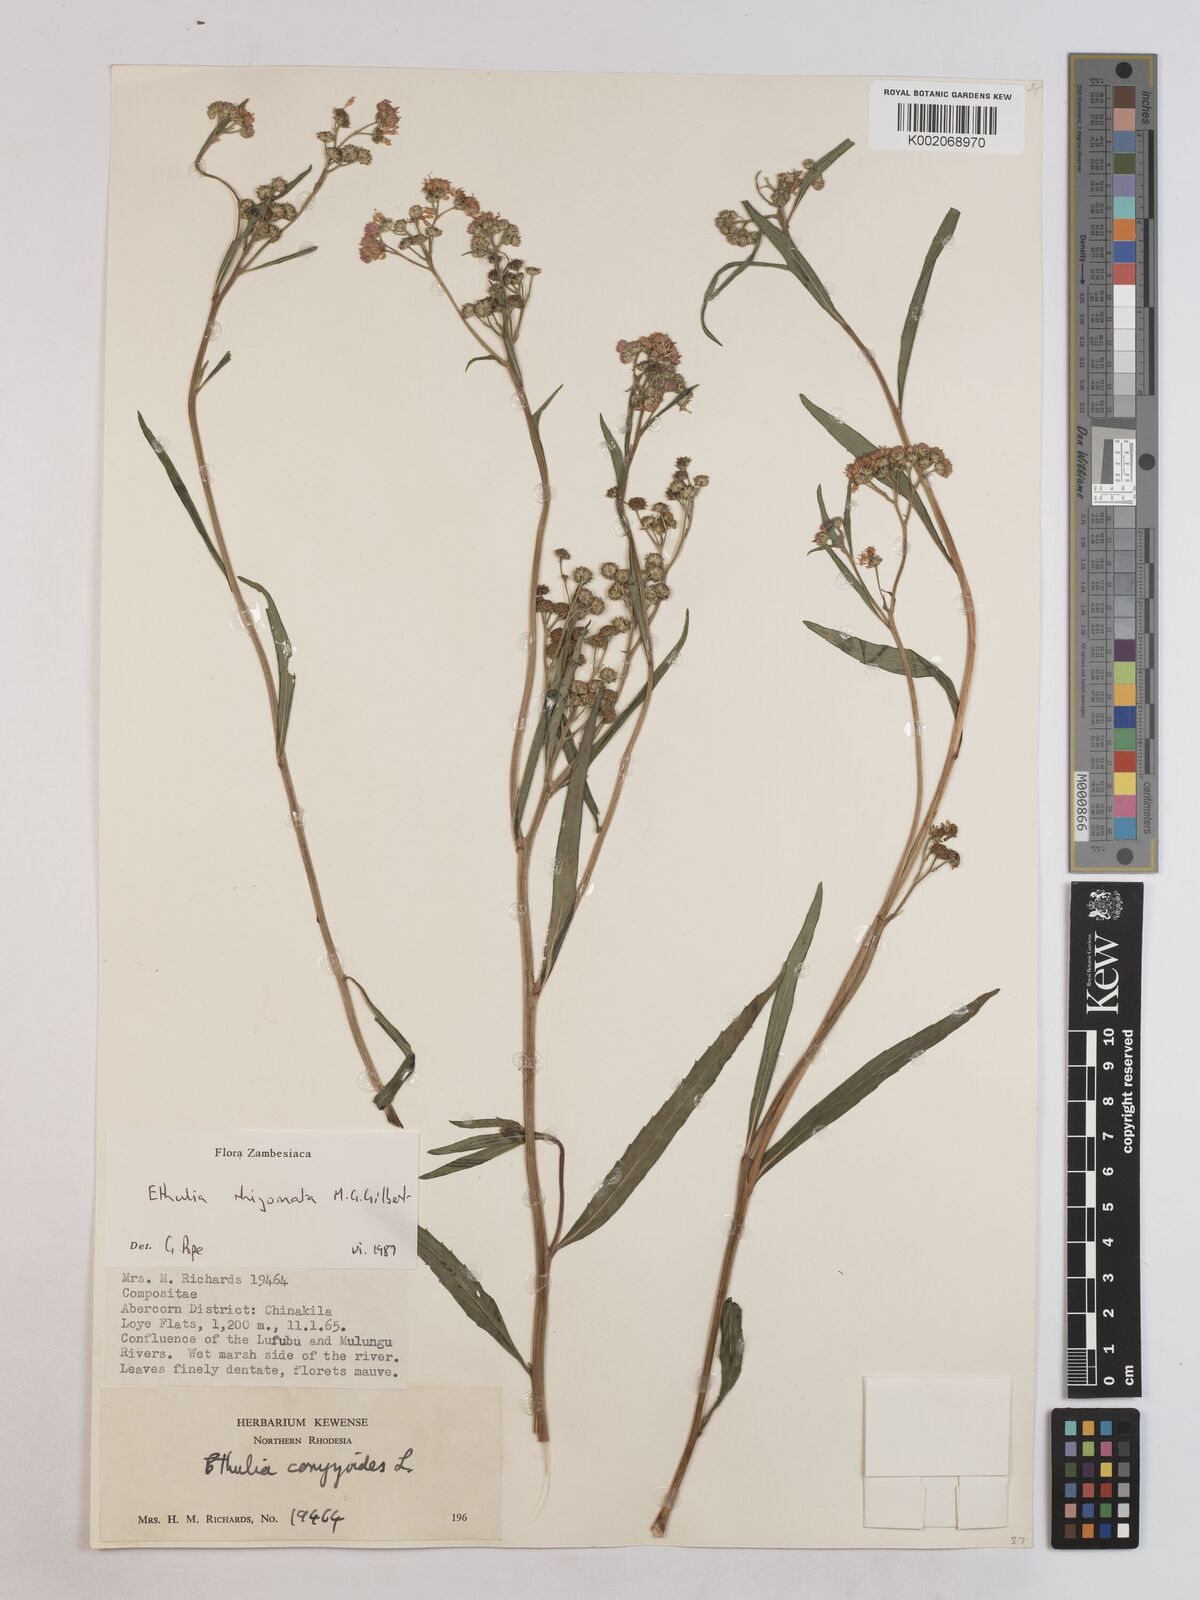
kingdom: Plantae
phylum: Tracheophyta
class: Magnoliopsida
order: Asterales
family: Asteraceae
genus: Ethulia
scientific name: Ethulia rhizomata
